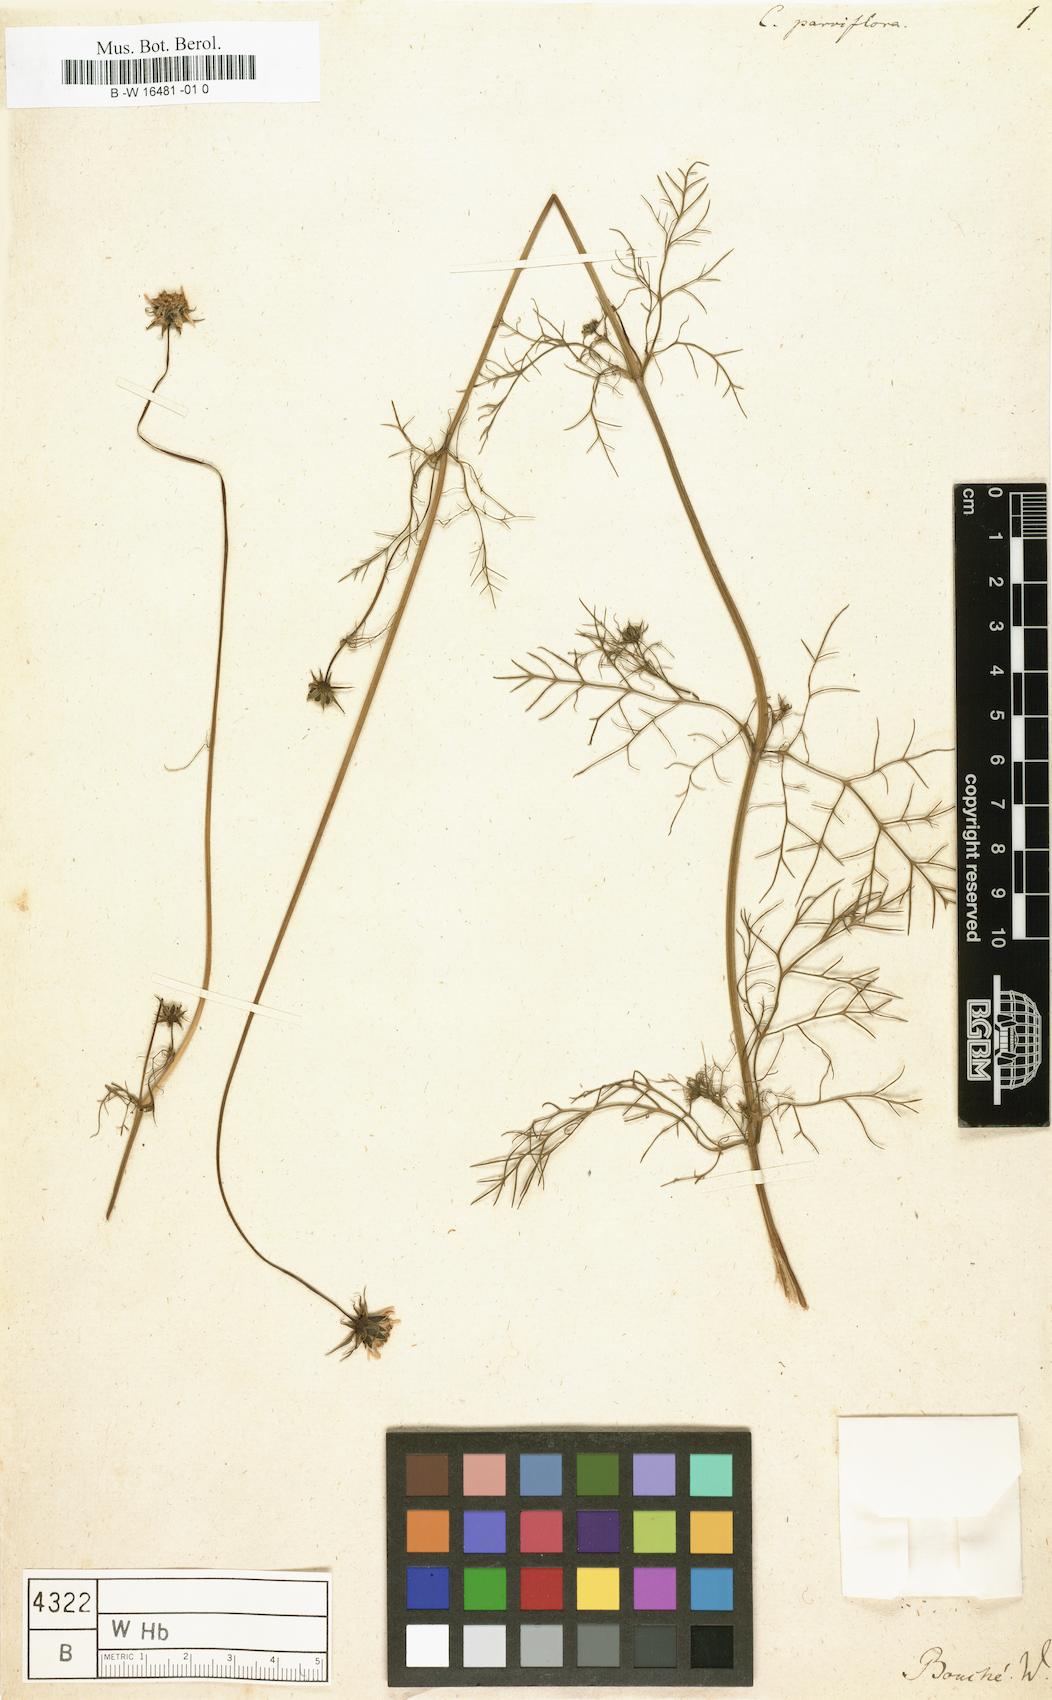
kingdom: Plantae
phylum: Tracheophyta
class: Magnoliopsida
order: Asterales
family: Asteraceae
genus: Cosmos
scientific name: Cosmos parviflorus
